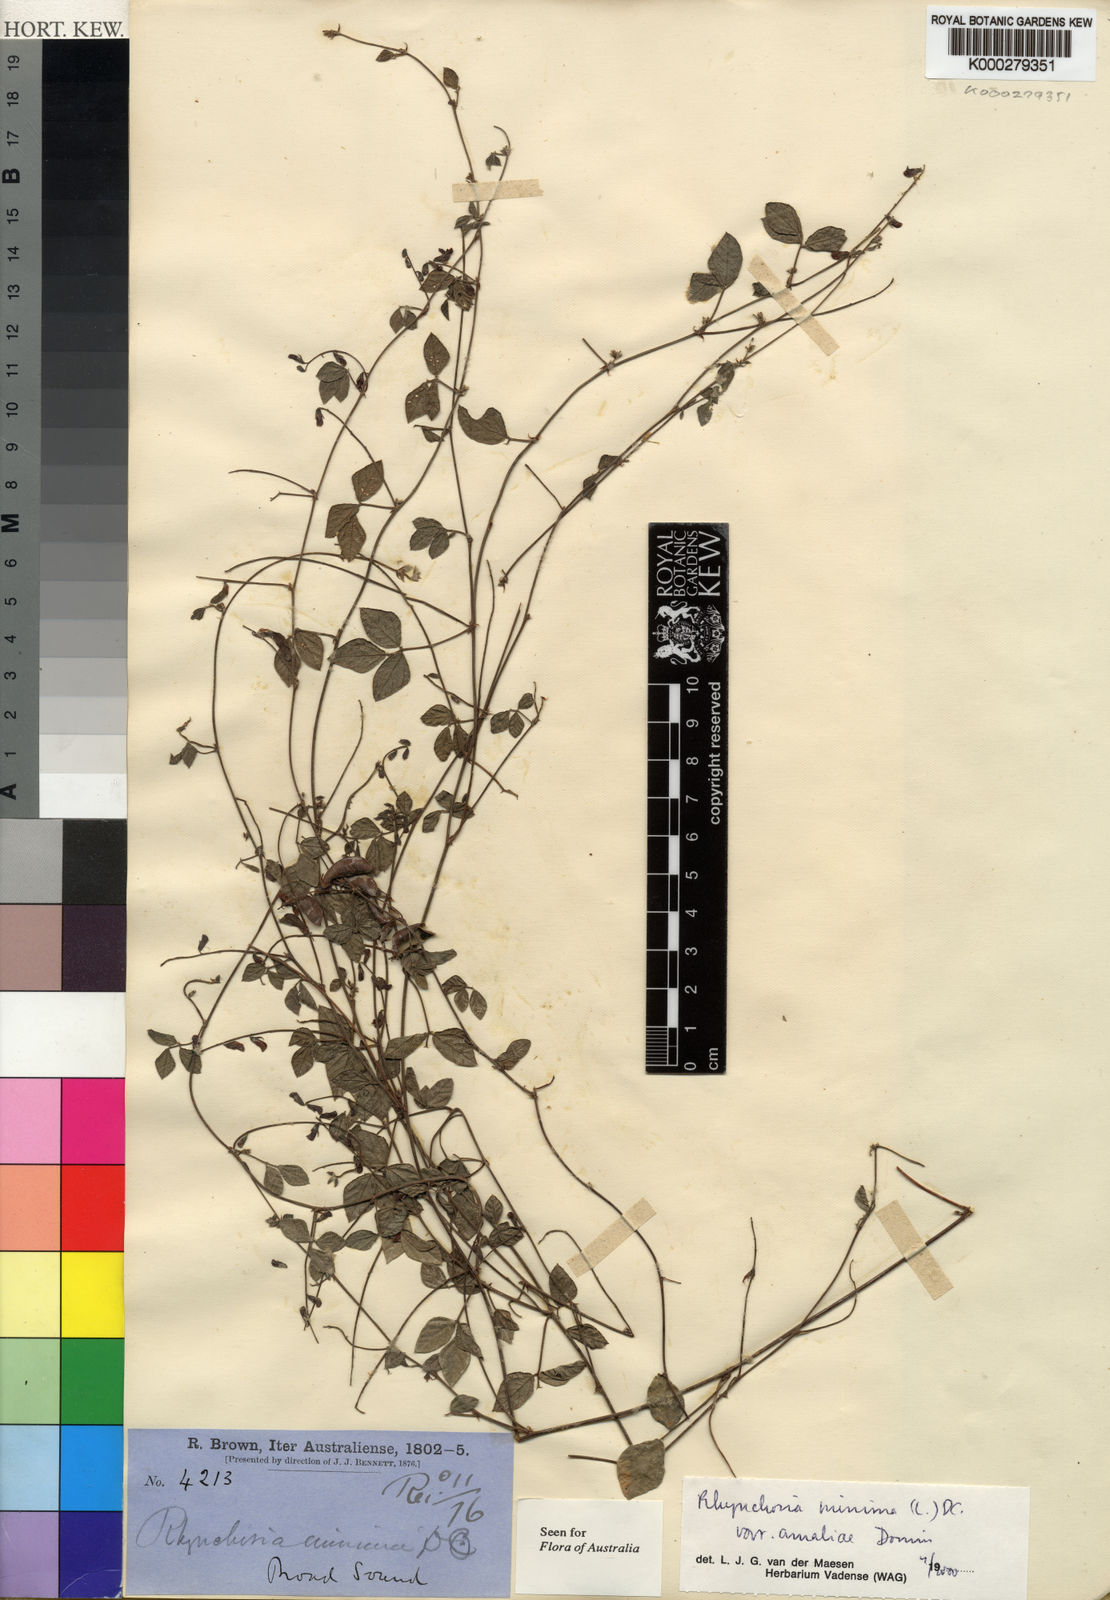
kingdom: Plantae
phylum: Tracheophyta
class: Magnoliopsida
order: Fabales
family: Fabaceae
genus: Rhynchosia
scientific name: Rhynchosia minima
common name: Least snoutbean
